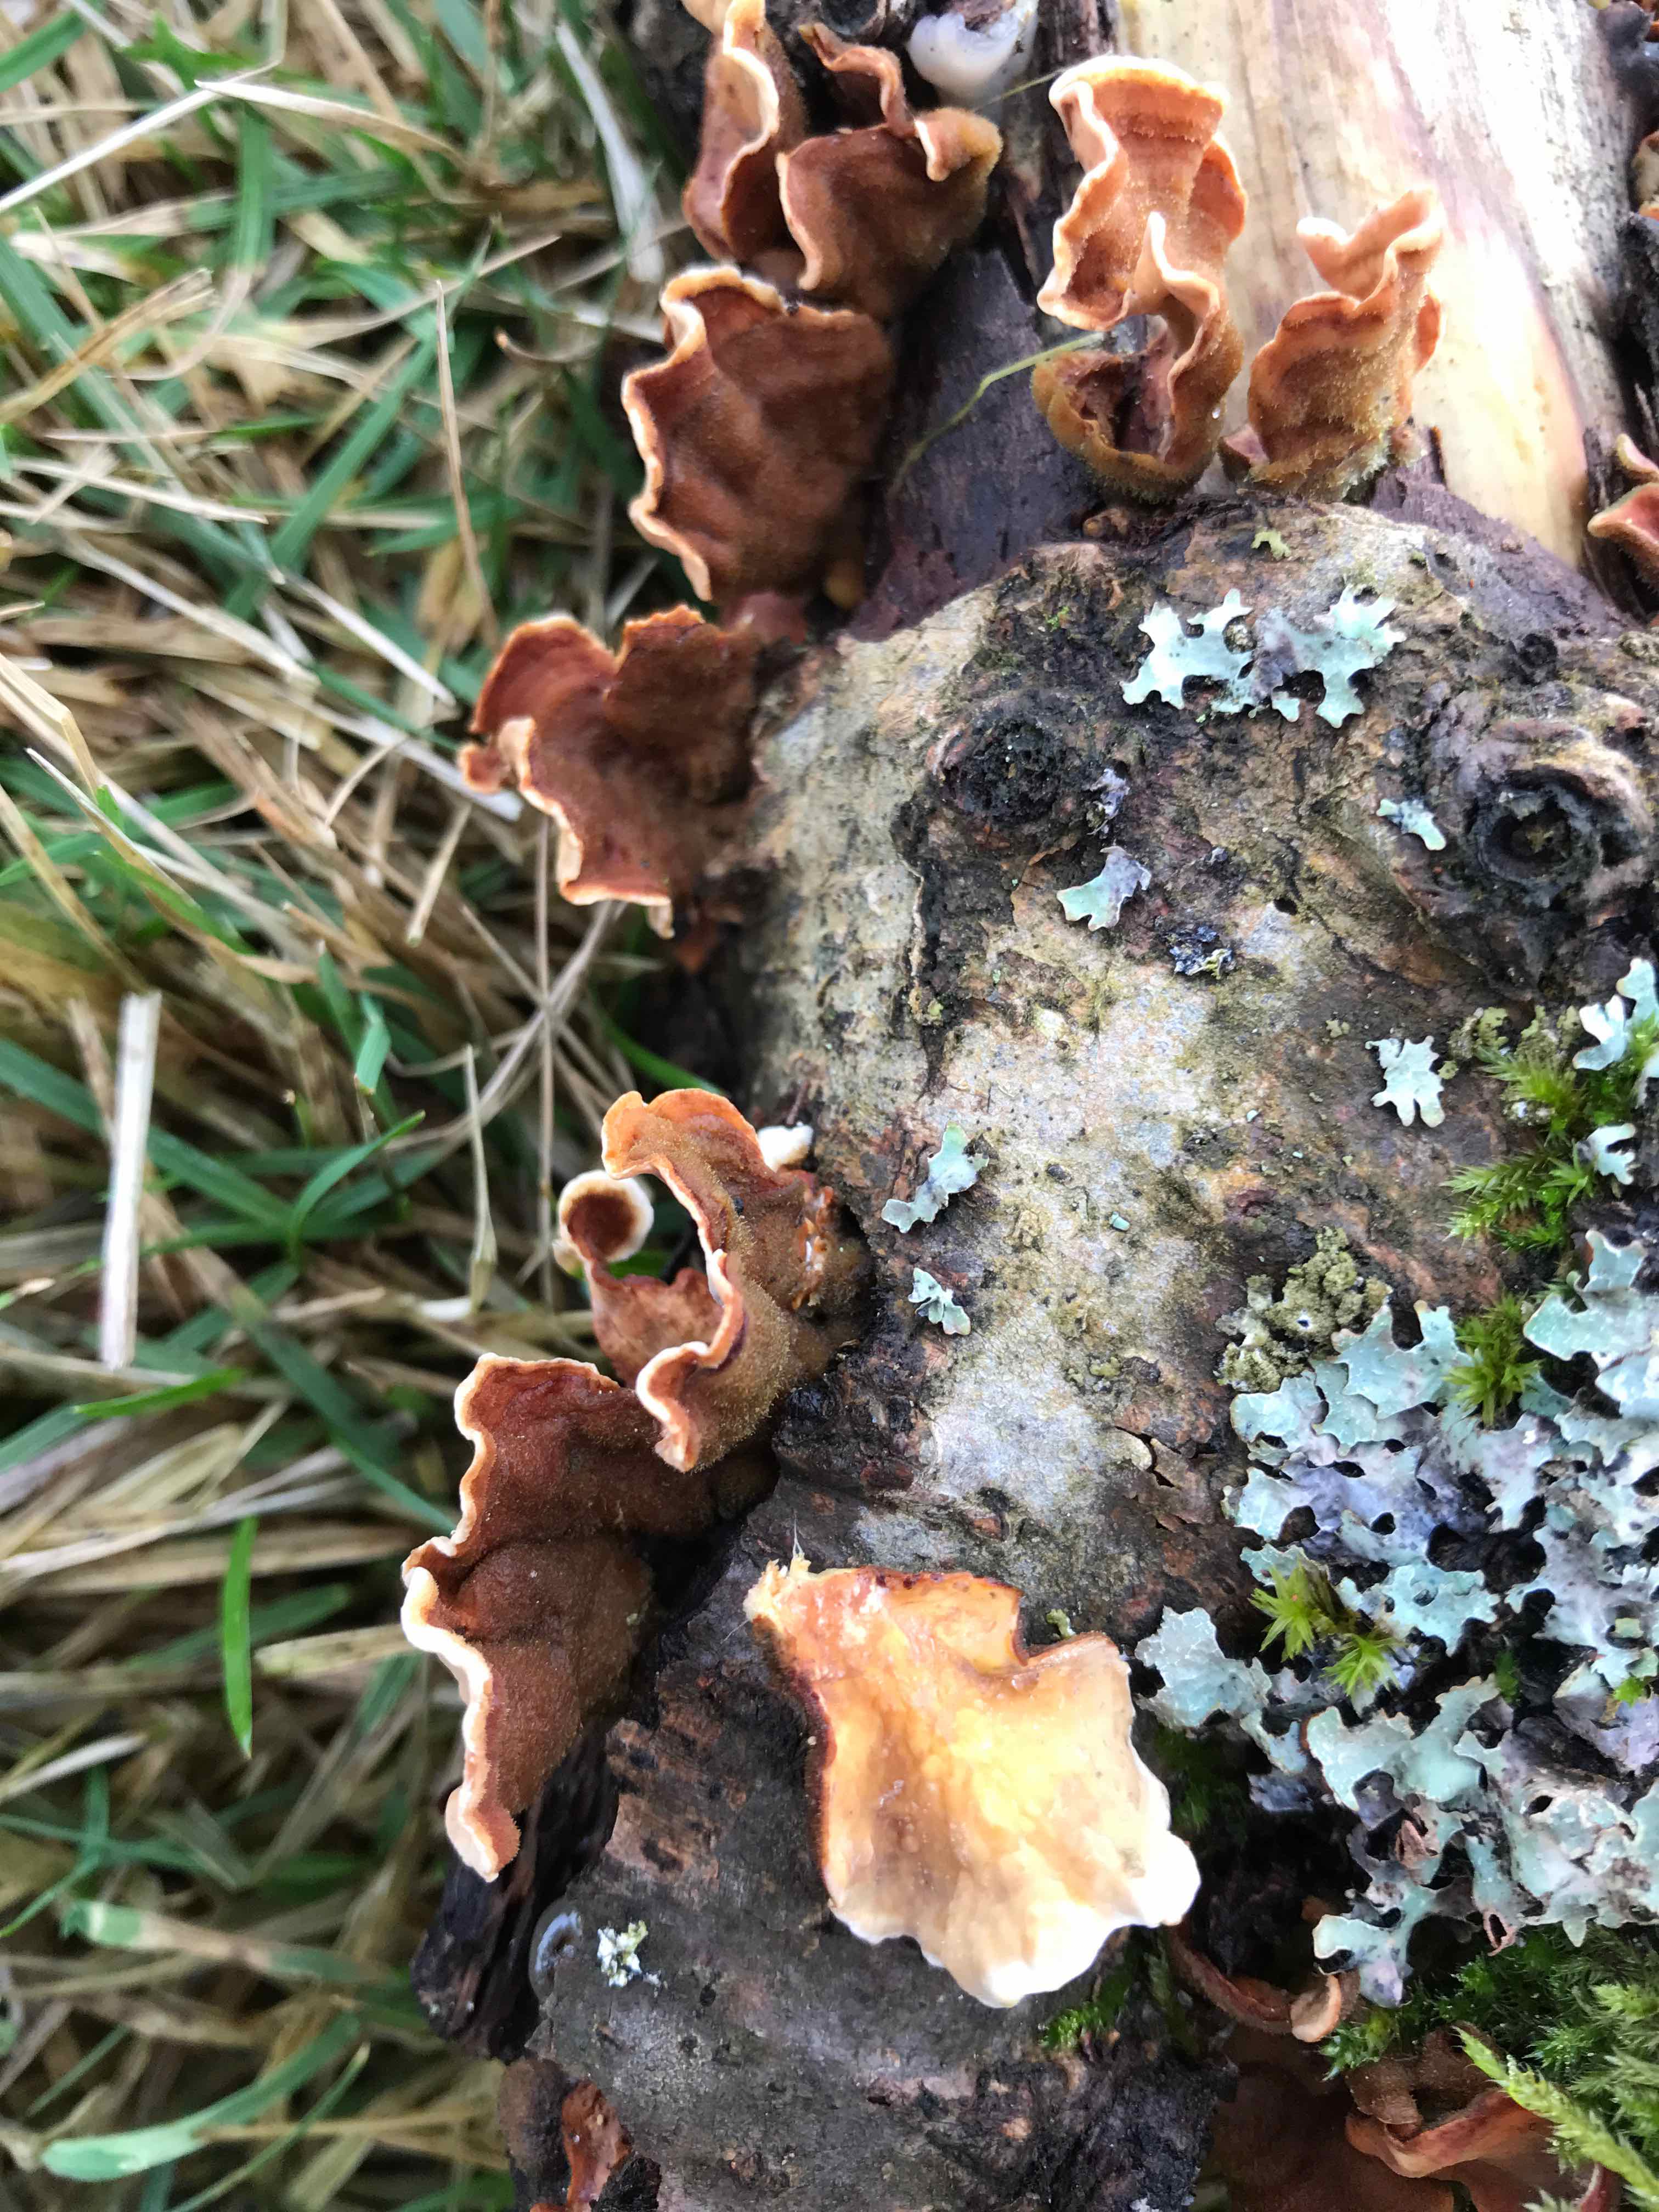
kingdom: Fungi
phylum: Basidiomycota
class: Agaricomycetes
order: Russulales
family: Stereaceae
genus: Stereum
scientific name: Stereum subtomentosum
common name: smuk lædersvamp
